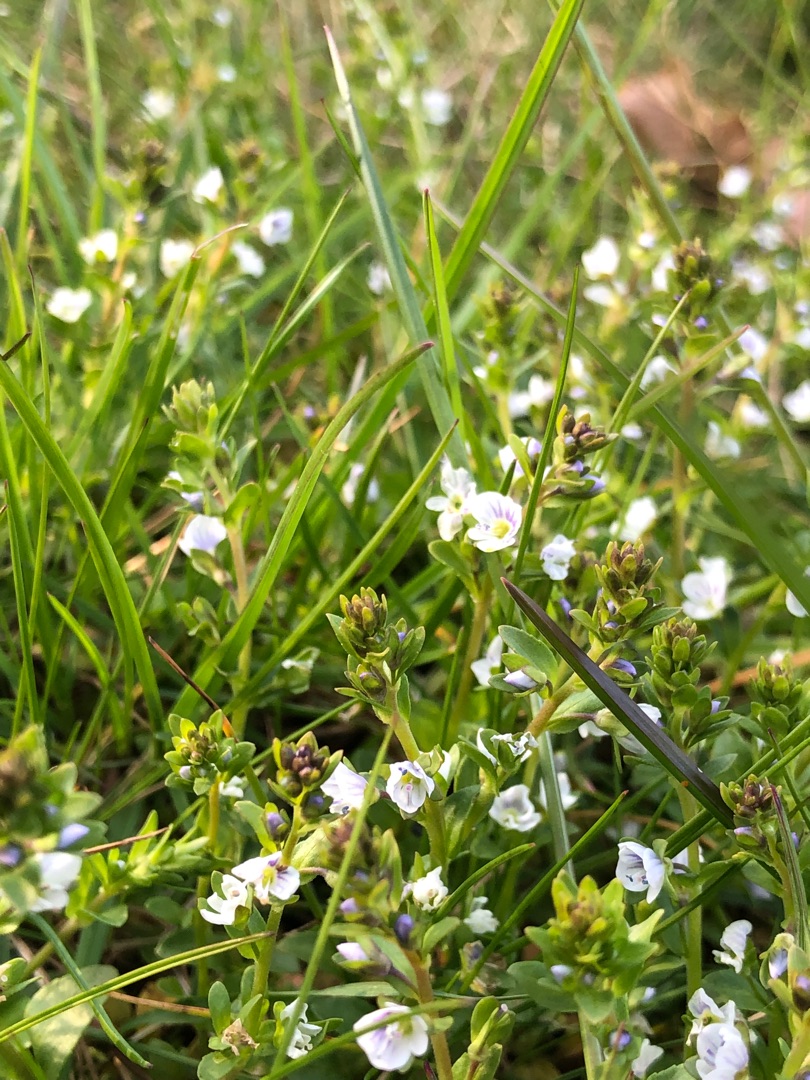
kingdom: Plantae
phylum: Tracheophyta
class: Magnoliopsida
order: Lamiales
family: Plantaginaceae
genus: Veronica
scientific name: Veronica serpyllifolia
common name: Glat ærenpris
